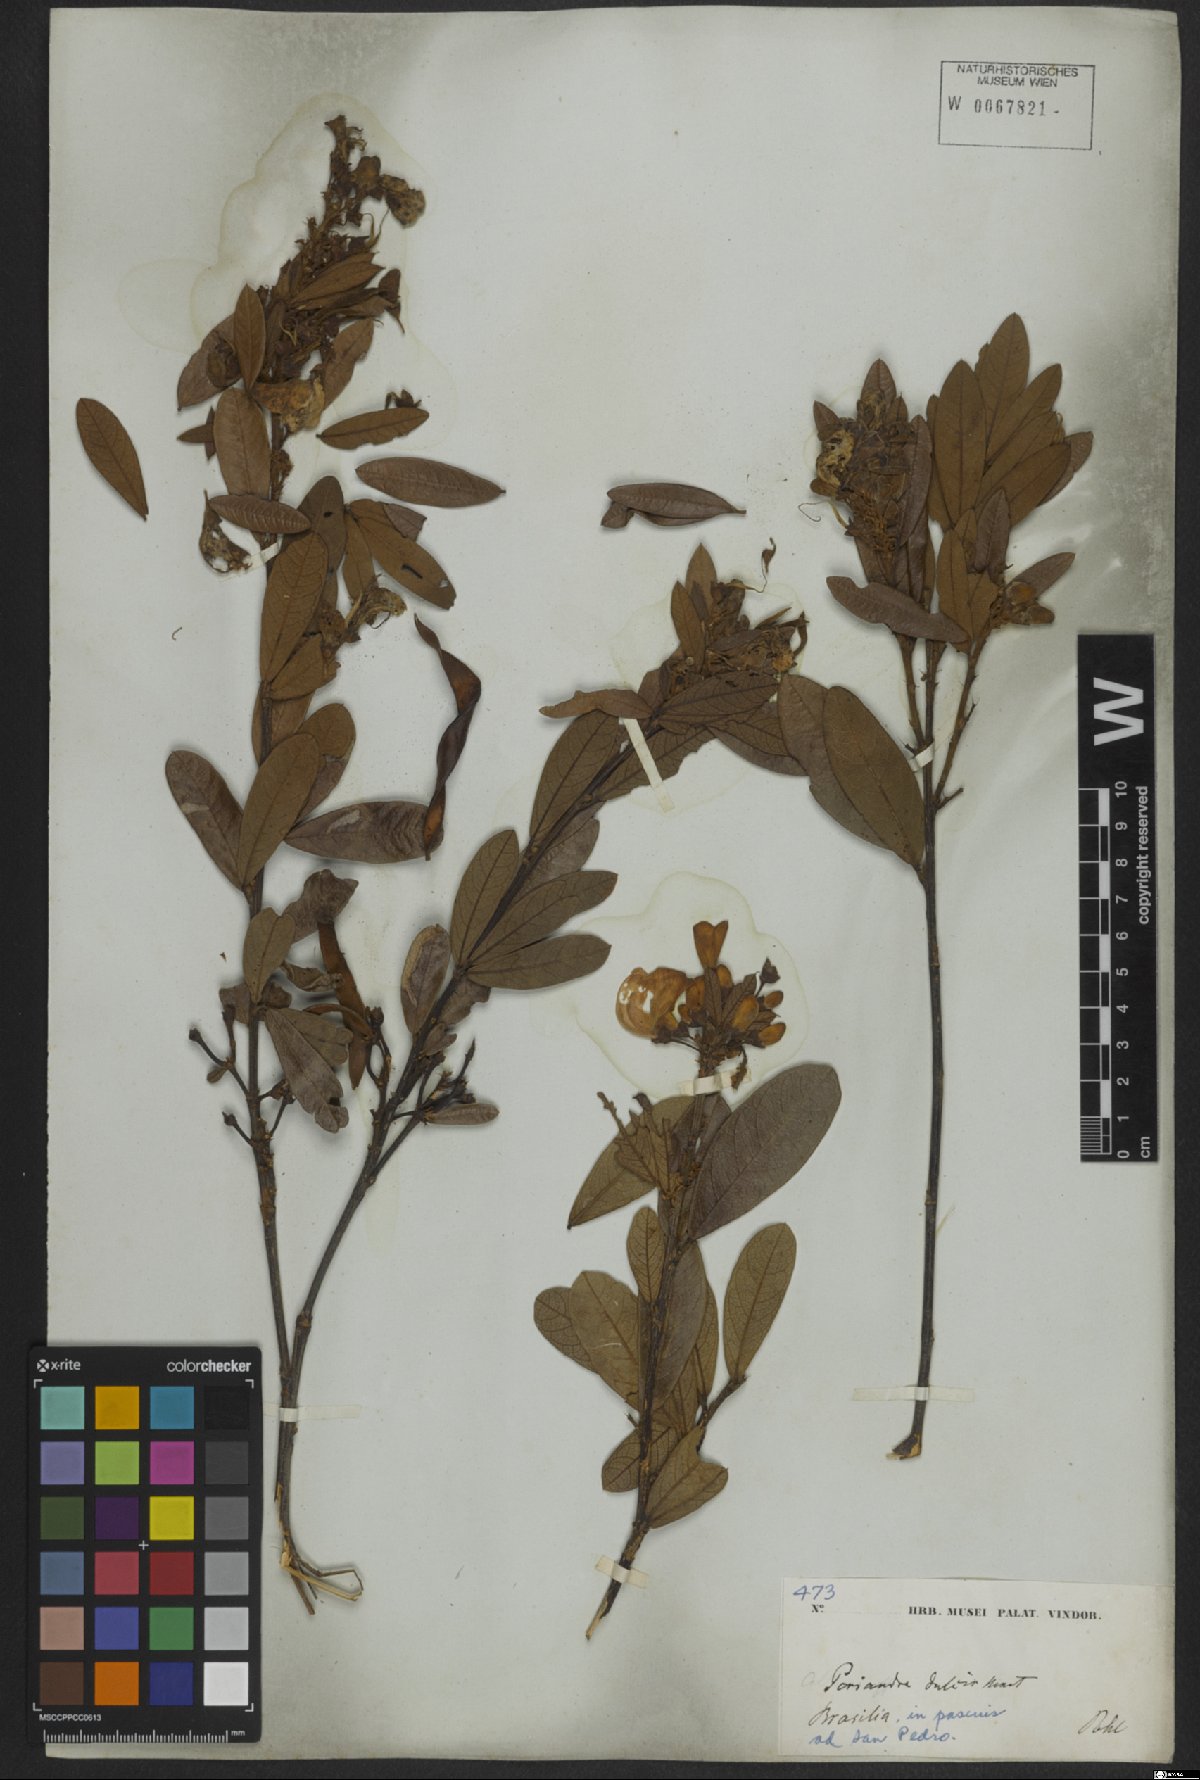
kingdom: Plantae
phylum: Tracheophyta
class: Magnoliopsida
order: Fabales
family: Fabaceae
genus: Periandra
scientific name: Periandra mediterranea
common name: Brazilian licorice
